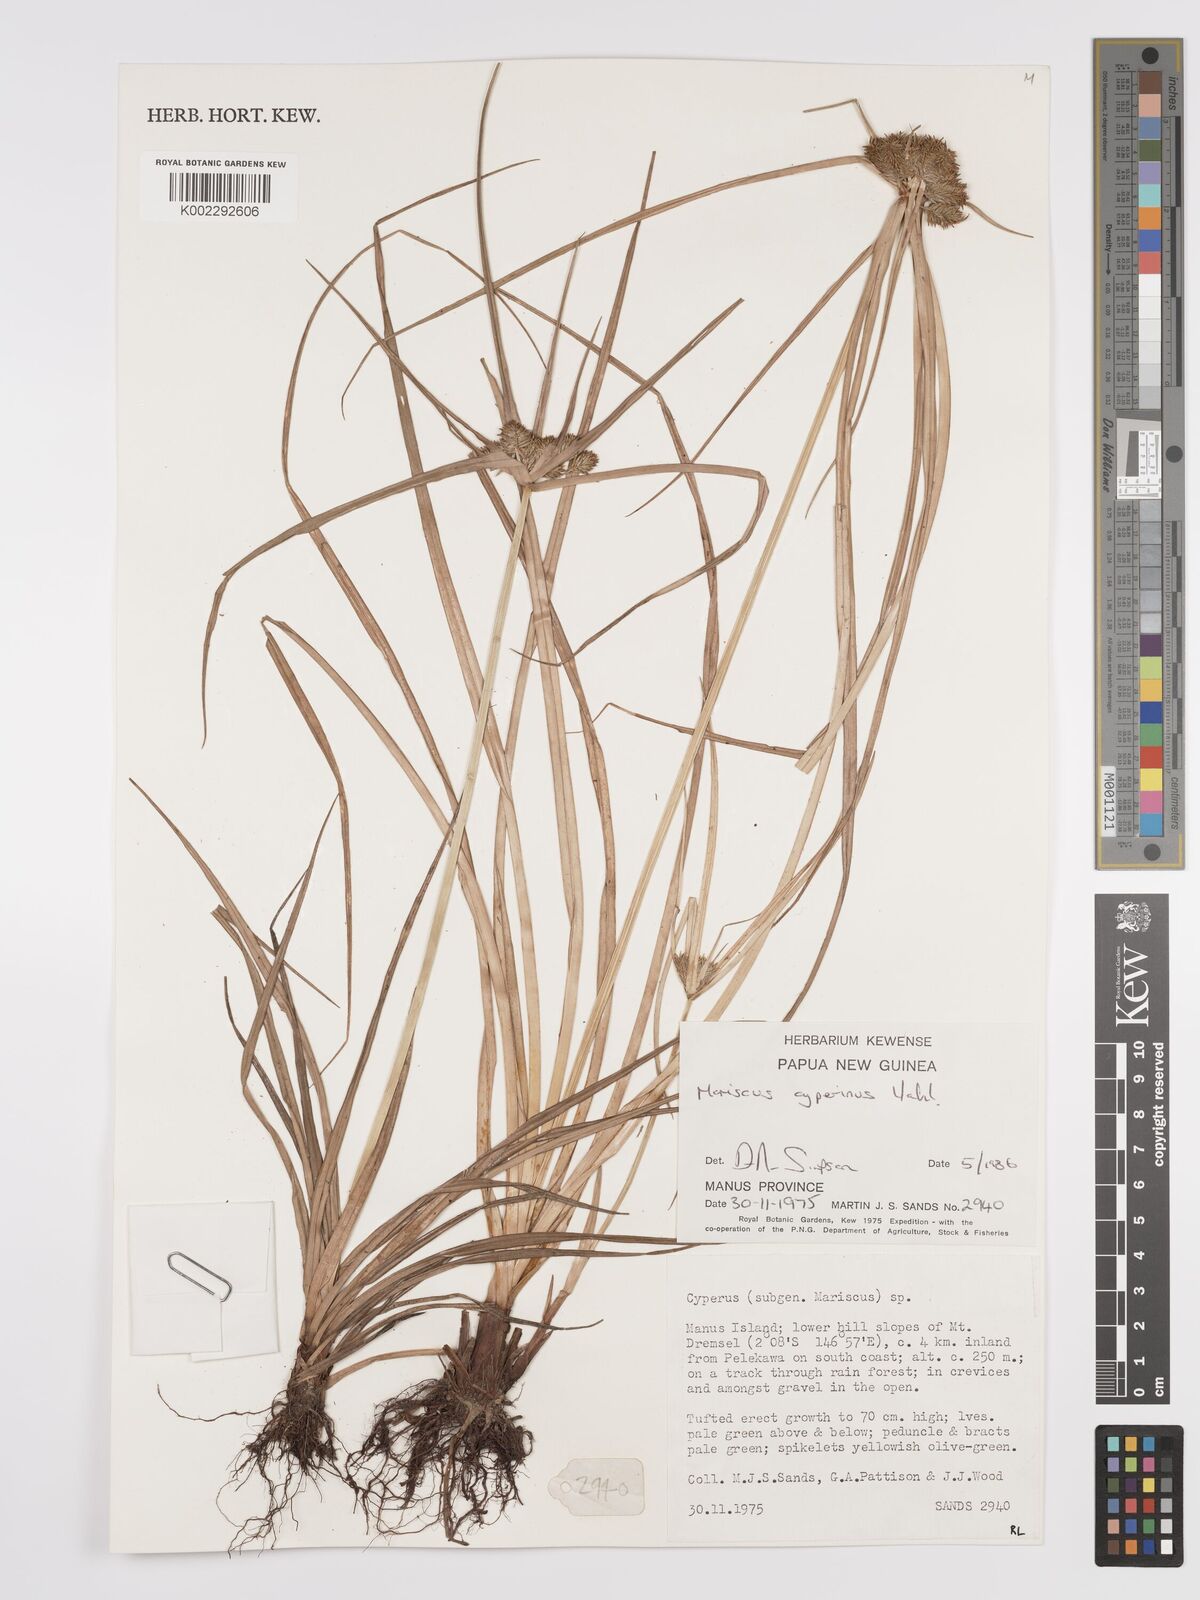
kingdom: Plantae
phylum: Tracheophyta
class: Liliopsida
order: Poales
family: Cyperaceae
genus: Cyperus
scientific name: Cyperus cyperinus
